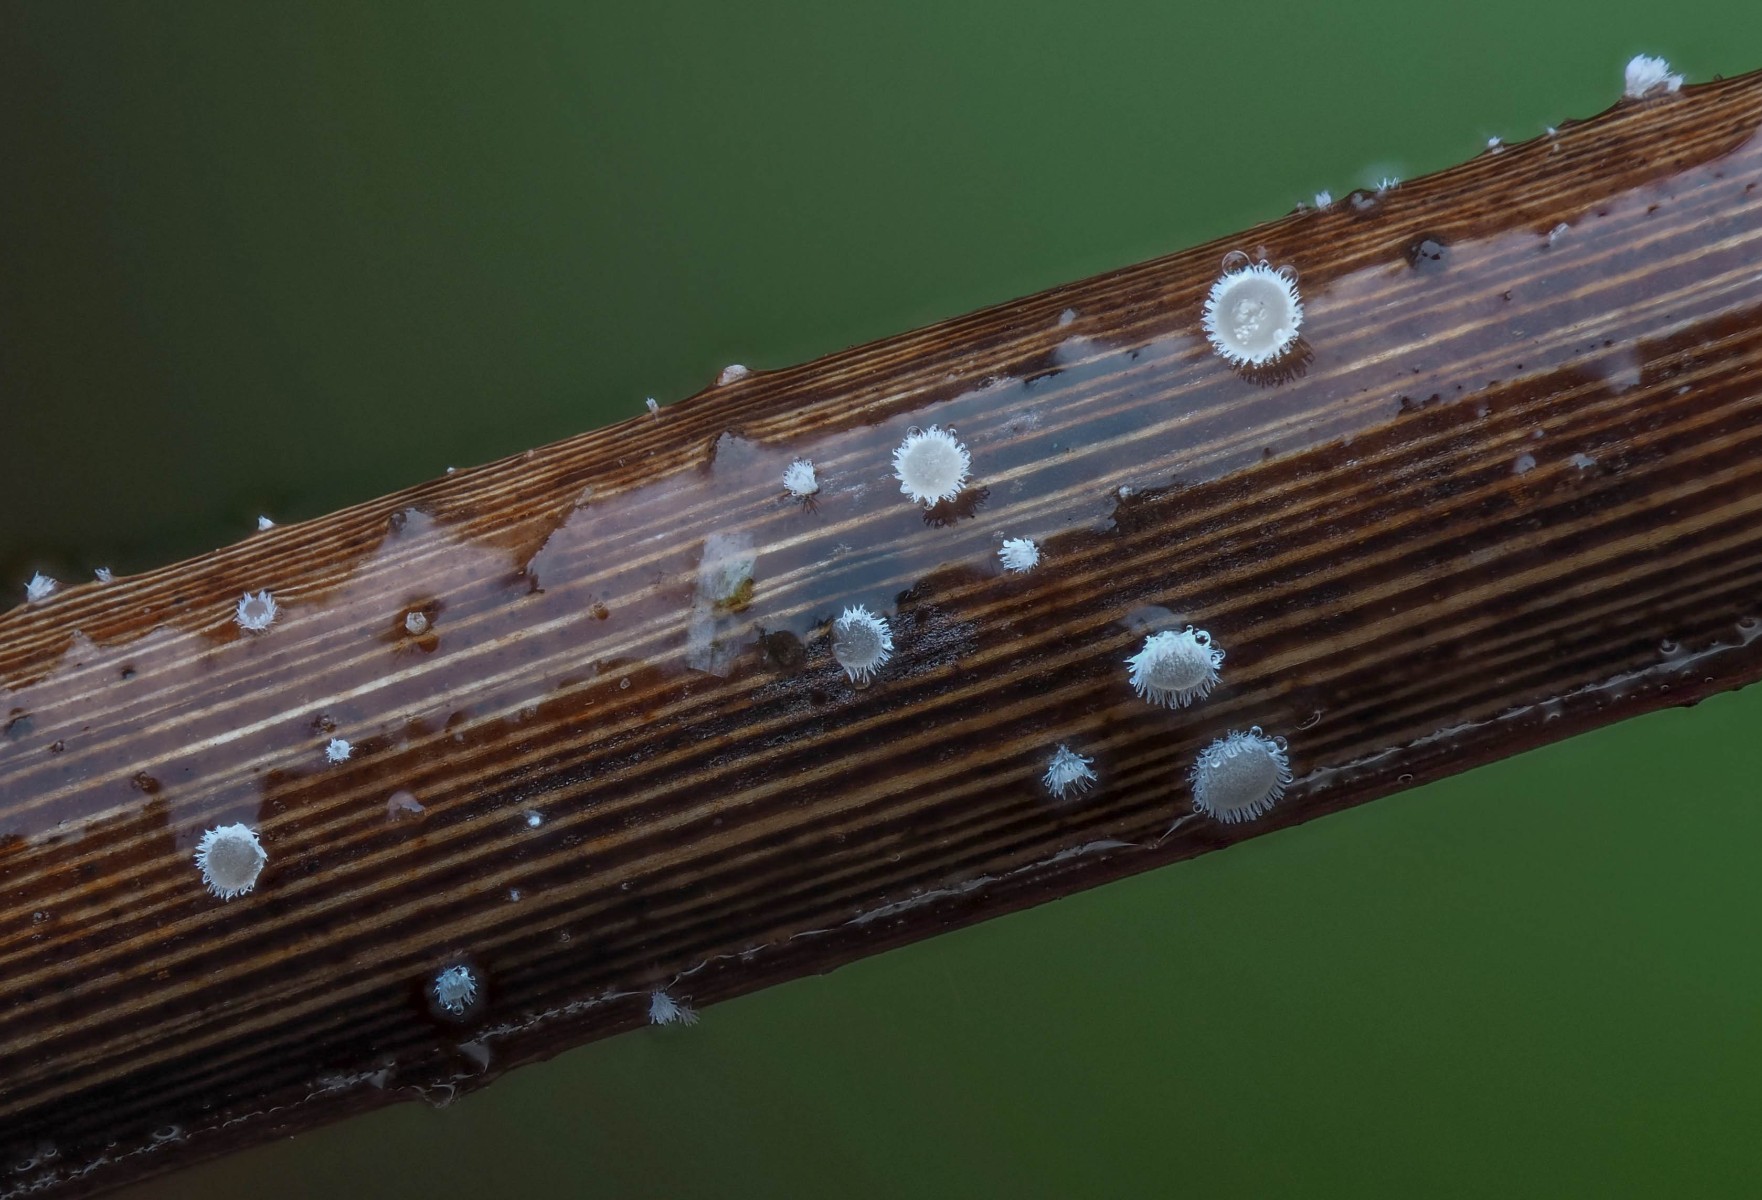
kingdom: Fungi
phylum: Ascomycota
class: Leotiomycetes
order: Helotiales
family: Lachnaceae
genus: Lachnum
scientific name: Lachnum apalum
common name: siv-frynseskive
